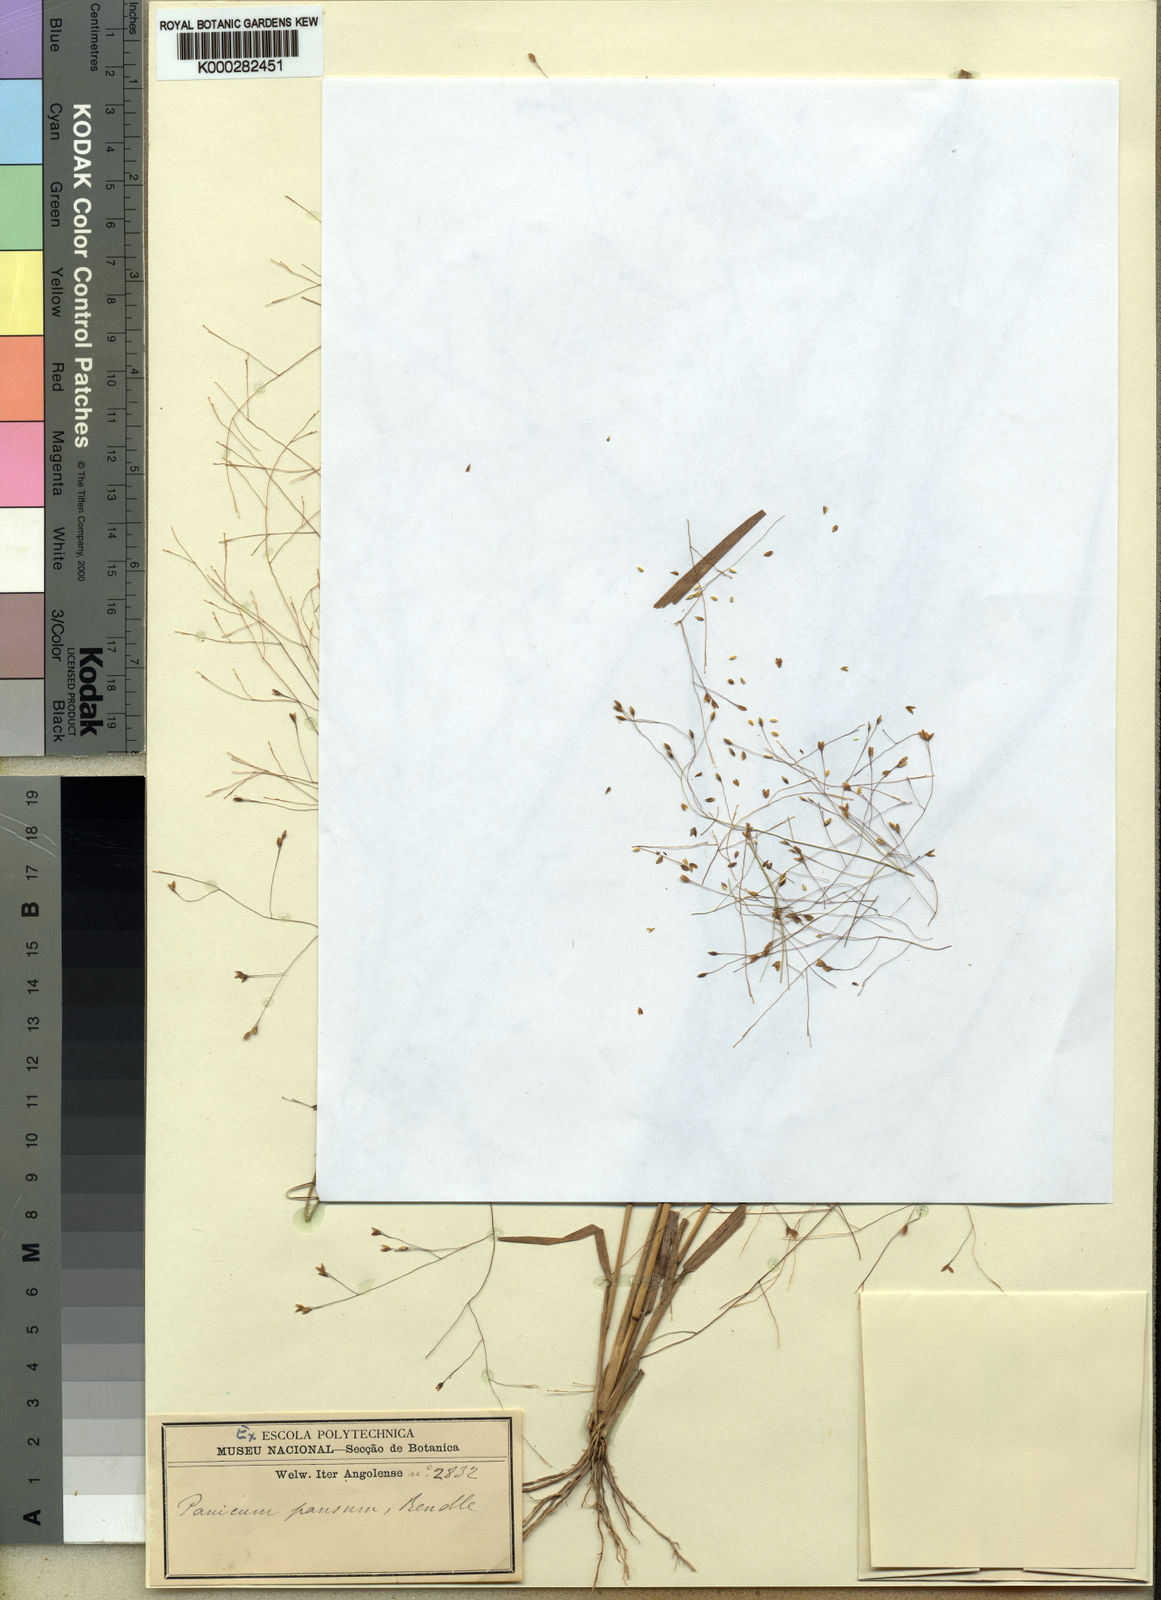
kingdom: Plantae
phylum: Tracheophyta
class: Liliopsida
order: Poales
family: Poaceae
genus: Panicum
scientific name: Panicum pansum
